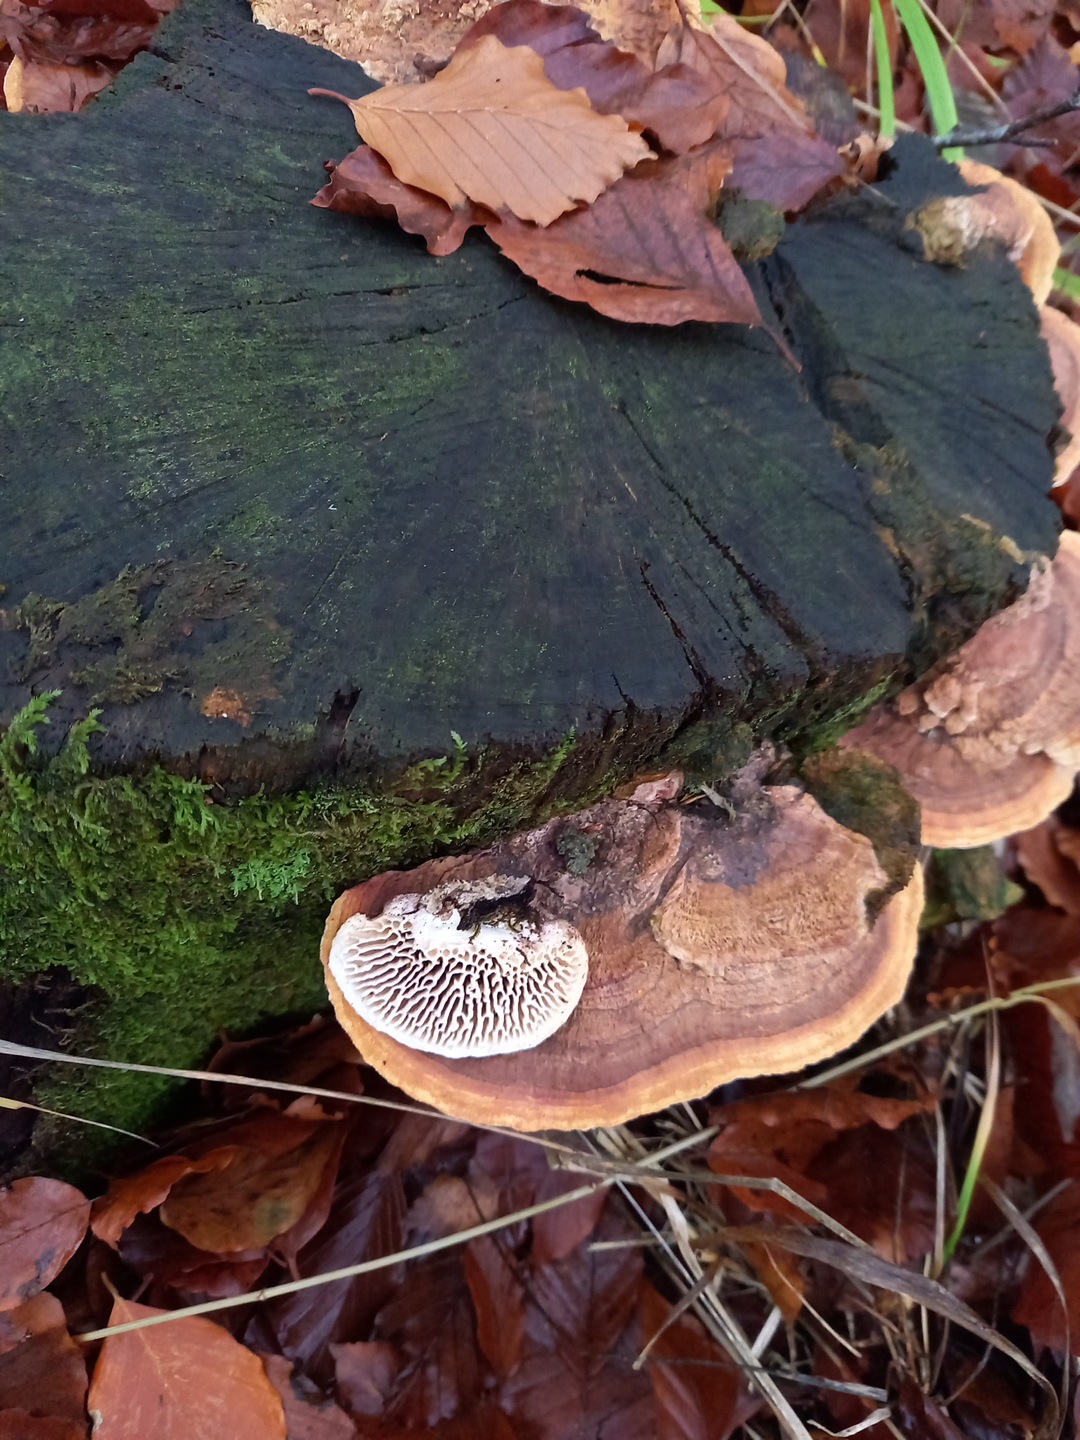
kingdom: Fungi
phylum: Basidiomycota
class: Agaricomycetes
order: Polyporales
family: Fomitopsidaceae
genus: Daedalea
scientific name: Daedalea quercina
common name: ege-labyrintsvamp
